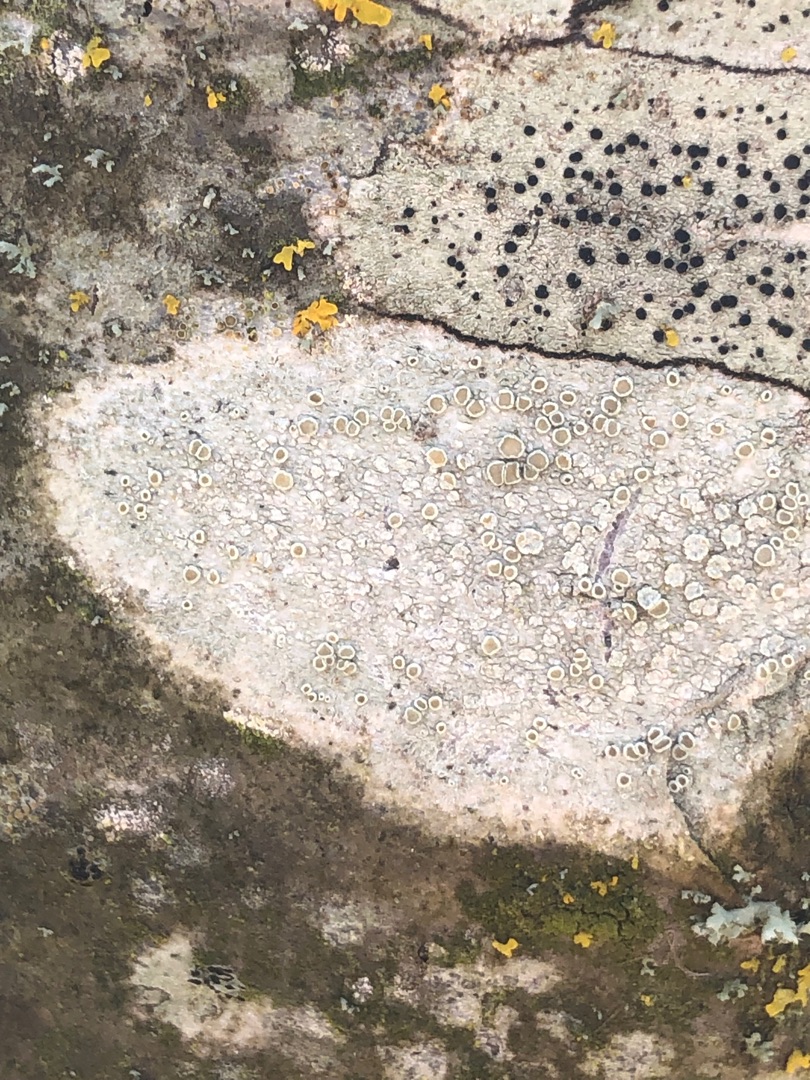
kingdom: Fungi
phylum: Ascomycota
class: Lecanoromycetes
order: Lecanorales
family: Lecanoraceae
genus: Lecidella
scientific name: Lecidella elaeochroma
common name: Grågrøn skivelav
